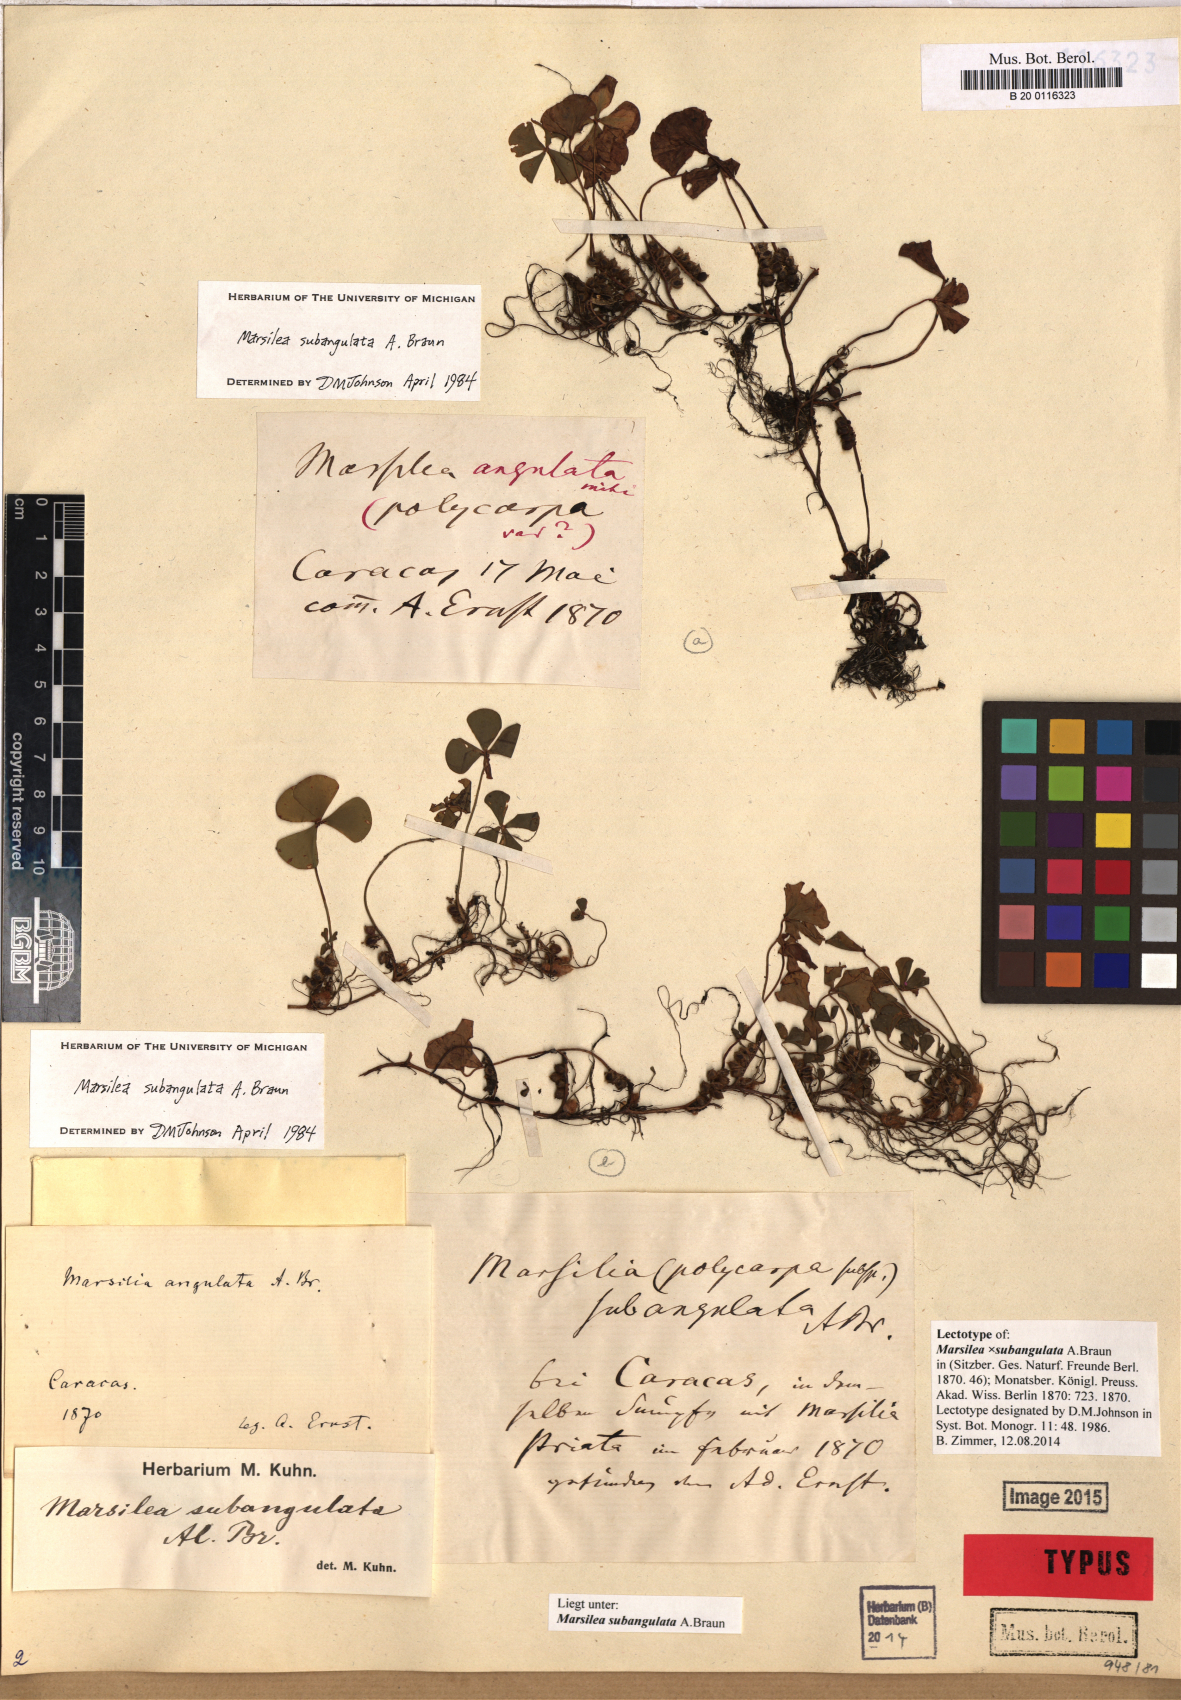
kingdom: Plantae
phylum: Tracheophyta
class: Polypodiopsida
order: Salviniales
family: Marsileaceae
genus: Marsilea
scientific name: Marsilea subangulata
